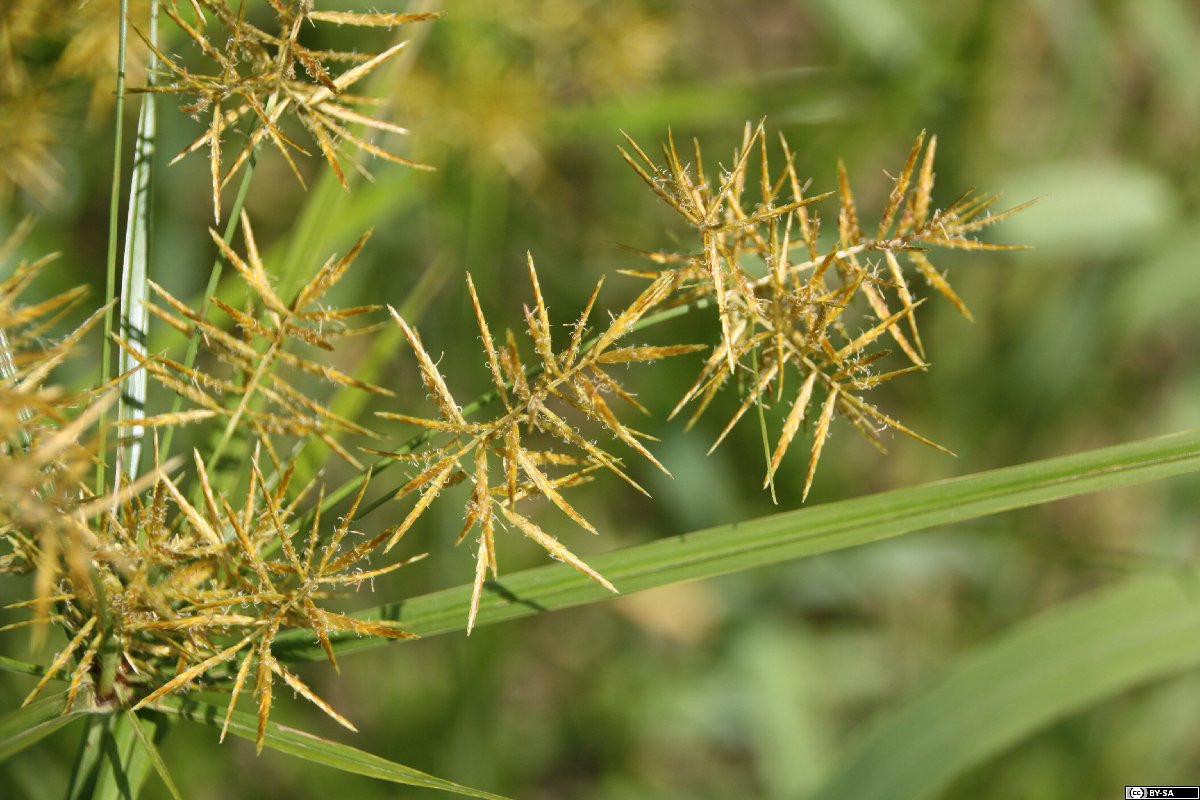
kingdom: Plantae
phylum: Tracheophyta
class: Liliopsida
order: Poales
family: Cyperaceae
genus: Cyperus
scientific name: Cyperus esculentus
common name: Yellow nutsedge
